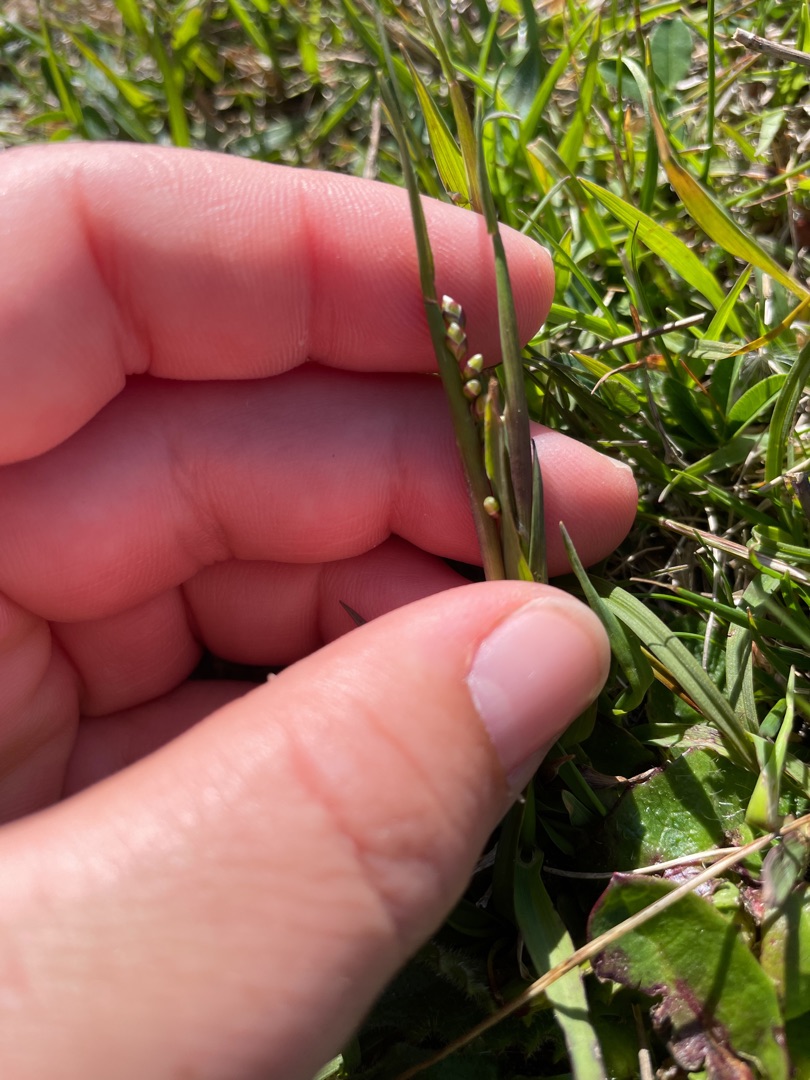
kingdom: Plantae
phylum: Tracheophyta
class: Liliopsida
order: Poales
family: Poaceae
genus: Briza
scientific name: Briza media
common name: Hjertegræs
